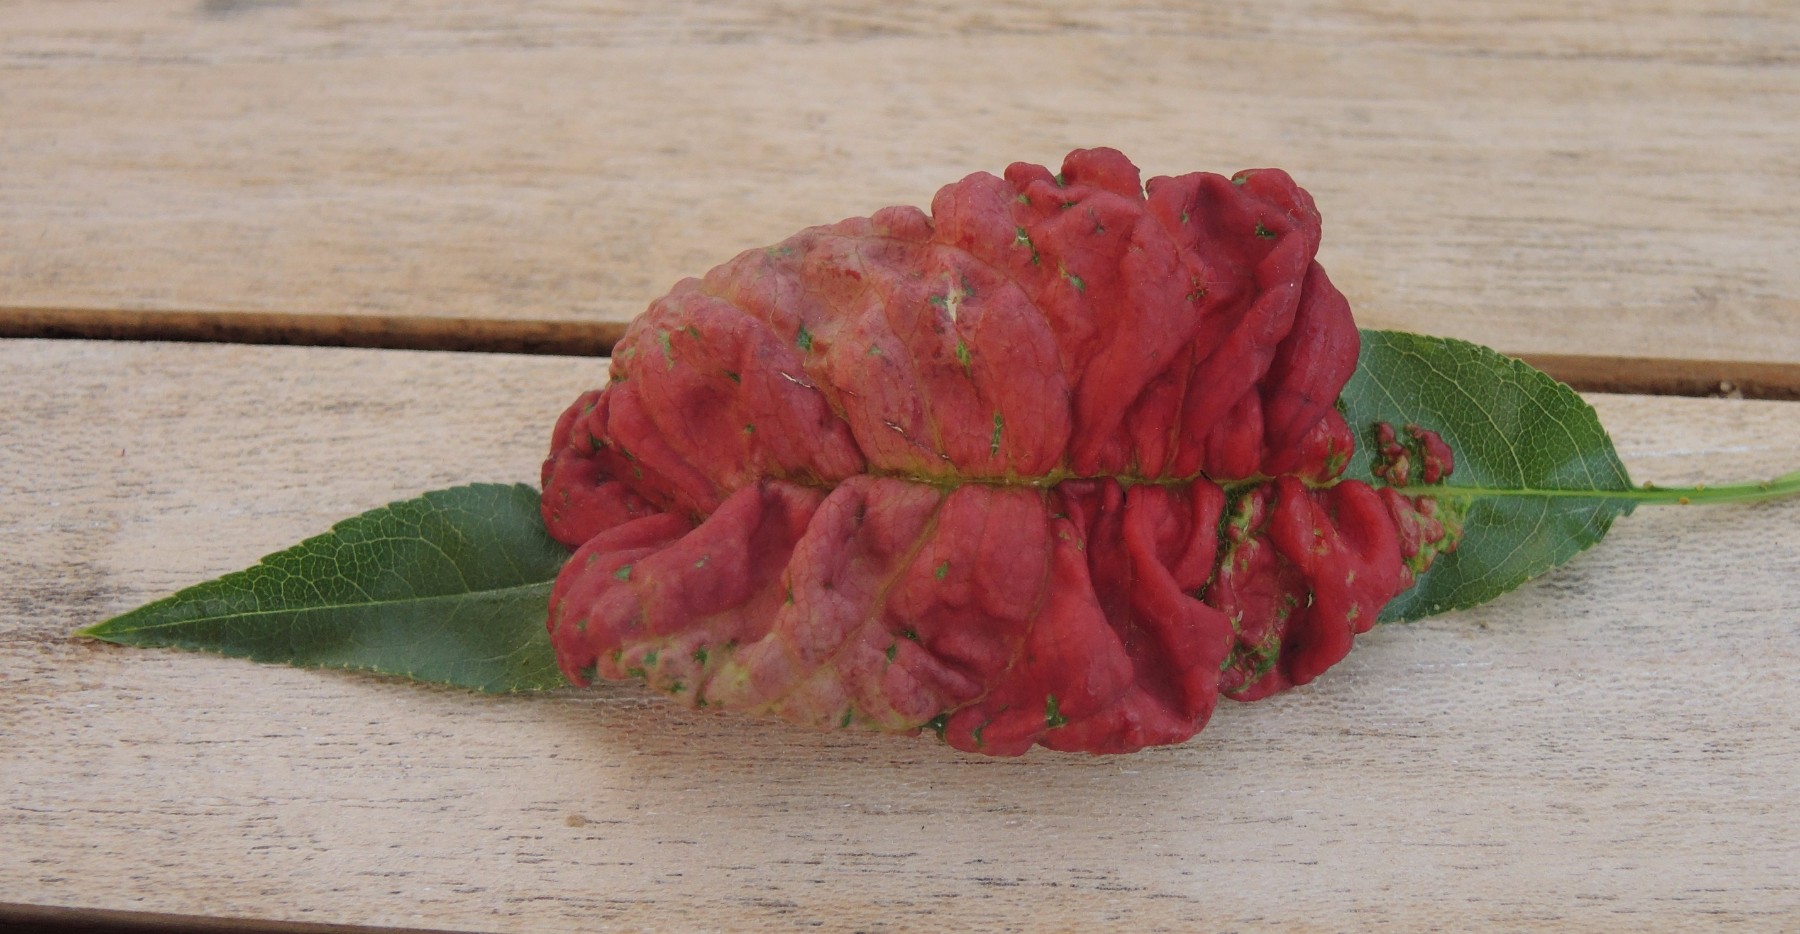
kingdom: Fungi
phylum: Ascomycota
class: Taphrinomycetes
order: Taphrinales
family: Taphrinaceae
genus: Taphrina
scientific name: Taphrina deformans
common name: Peach leaf curl
